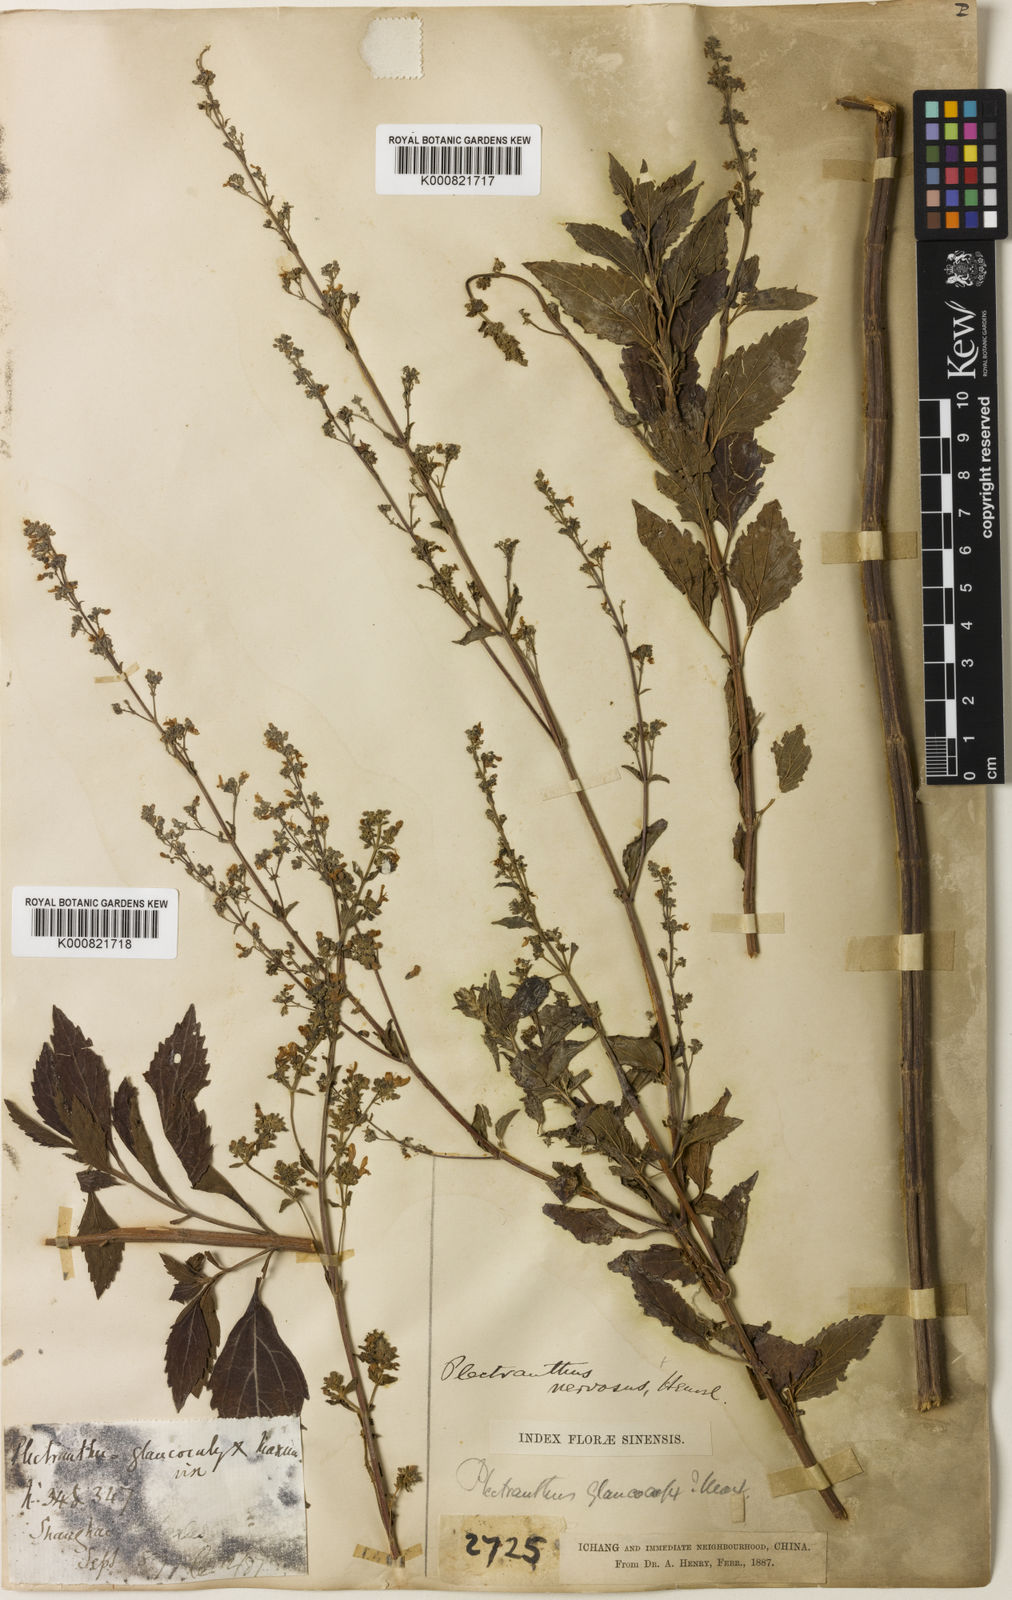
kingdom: Plantae
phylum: Tracheophyta
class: Magnoliopsida
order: Lamiales
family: Lamiaceae
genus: Isodon
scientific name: Isodon
